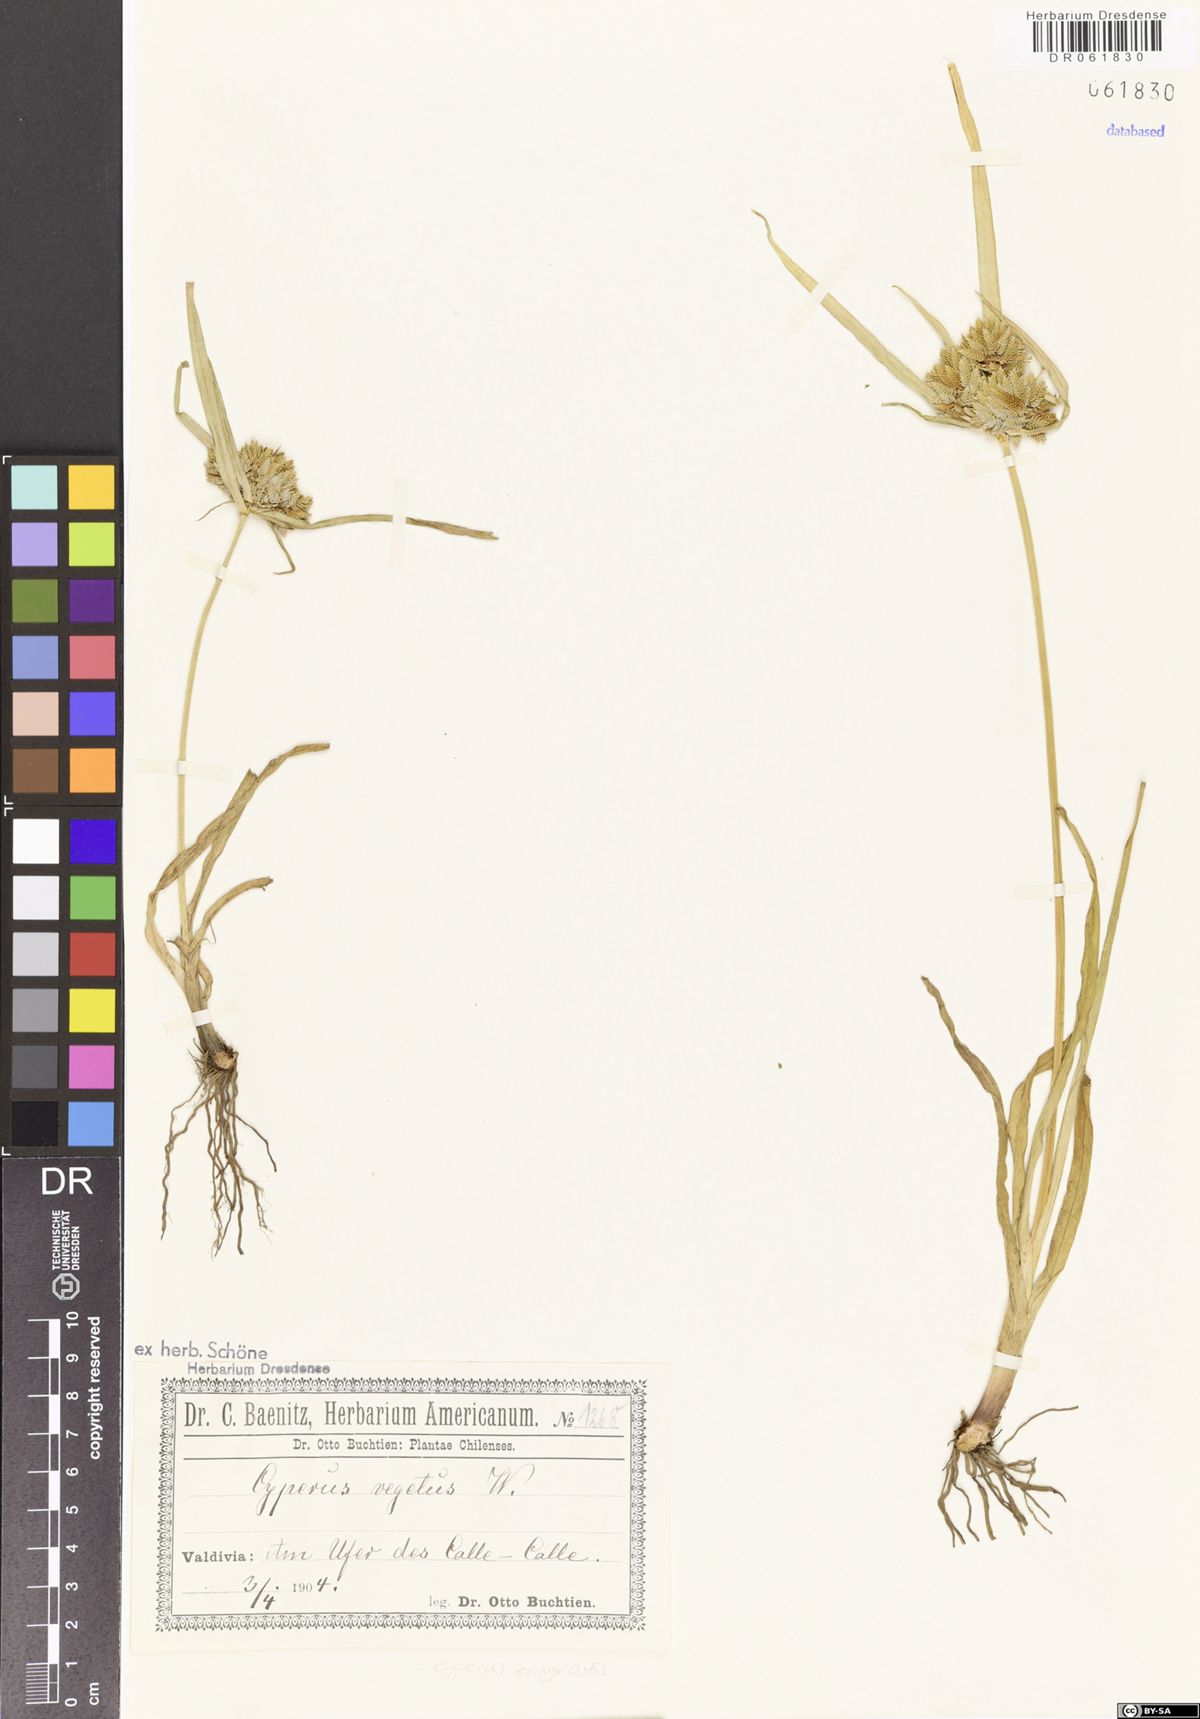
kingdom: Plantae
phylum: Tracheophyta
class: Liliopsida
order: Poales
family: Cyperaceae
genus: Cyperus
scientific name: Cyperus eragrostis
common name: Tall flatsedge
